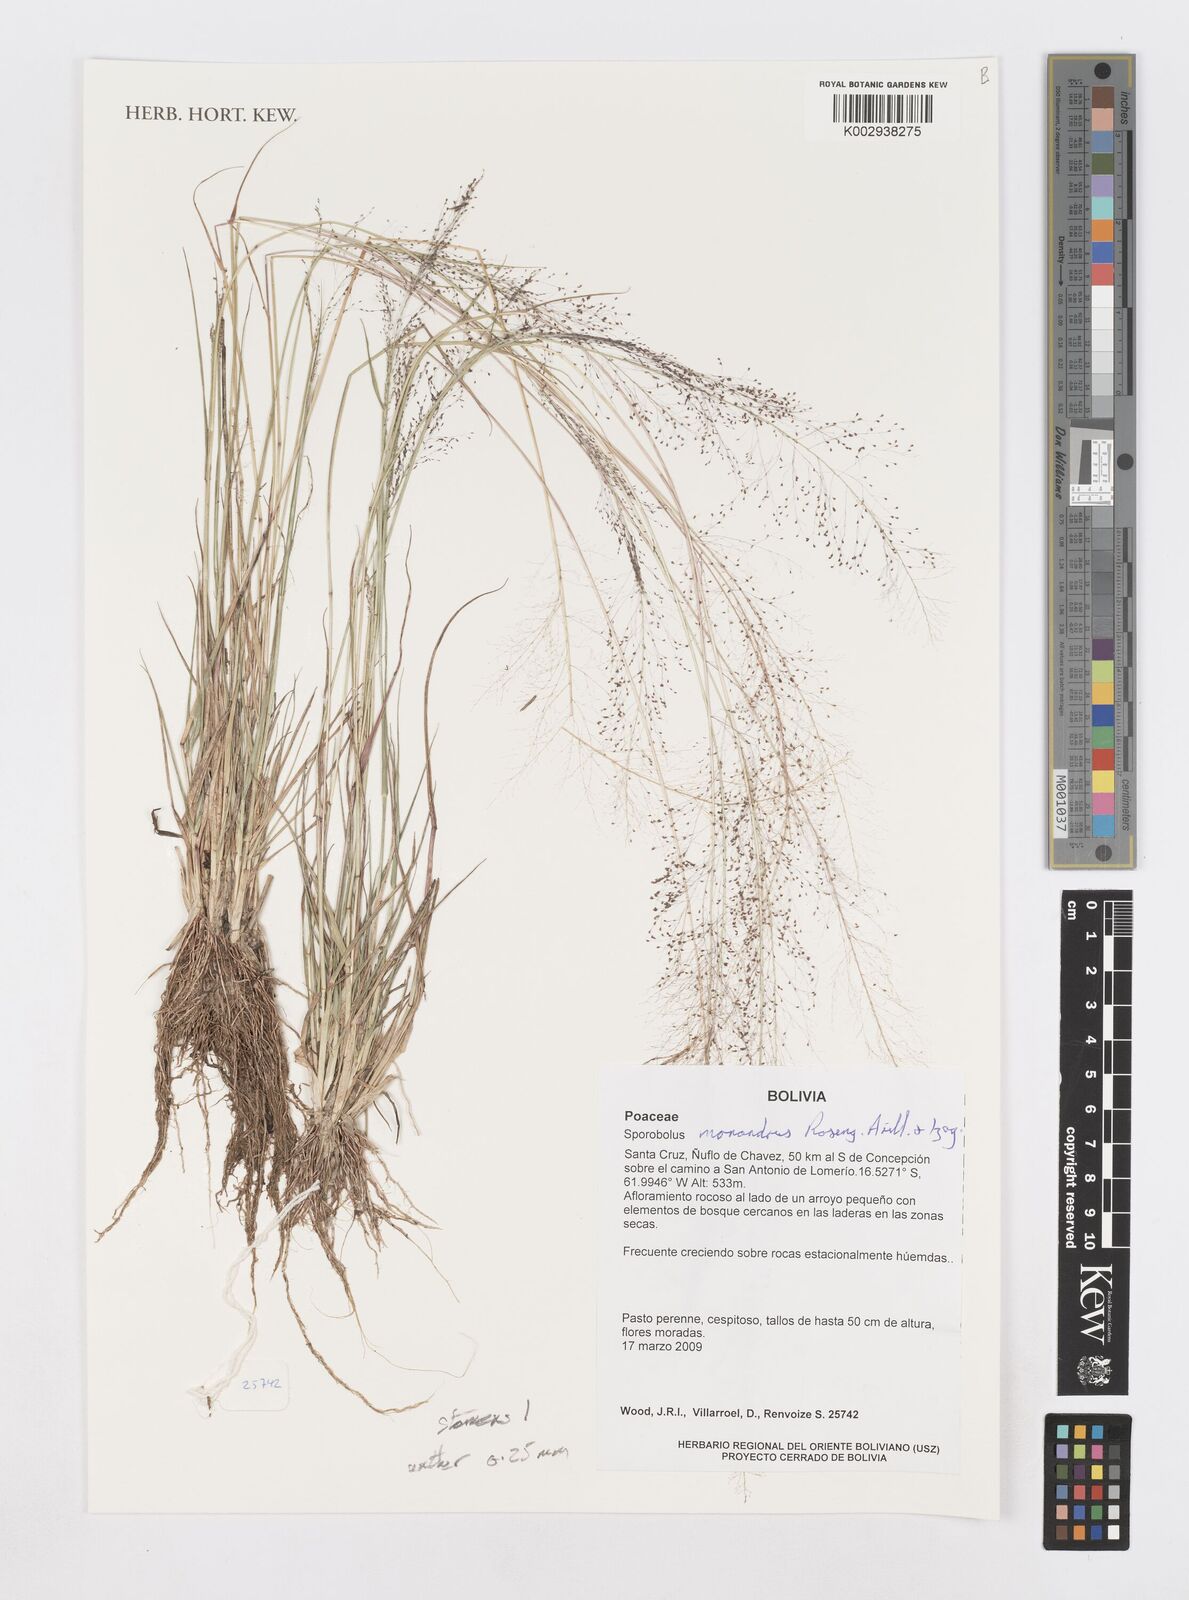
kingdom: Plantae
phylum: Tracheophyta
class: Liliopsida
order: Poales
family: Poaceae
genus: Sporobolus
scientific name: Sporobolus monandrus
